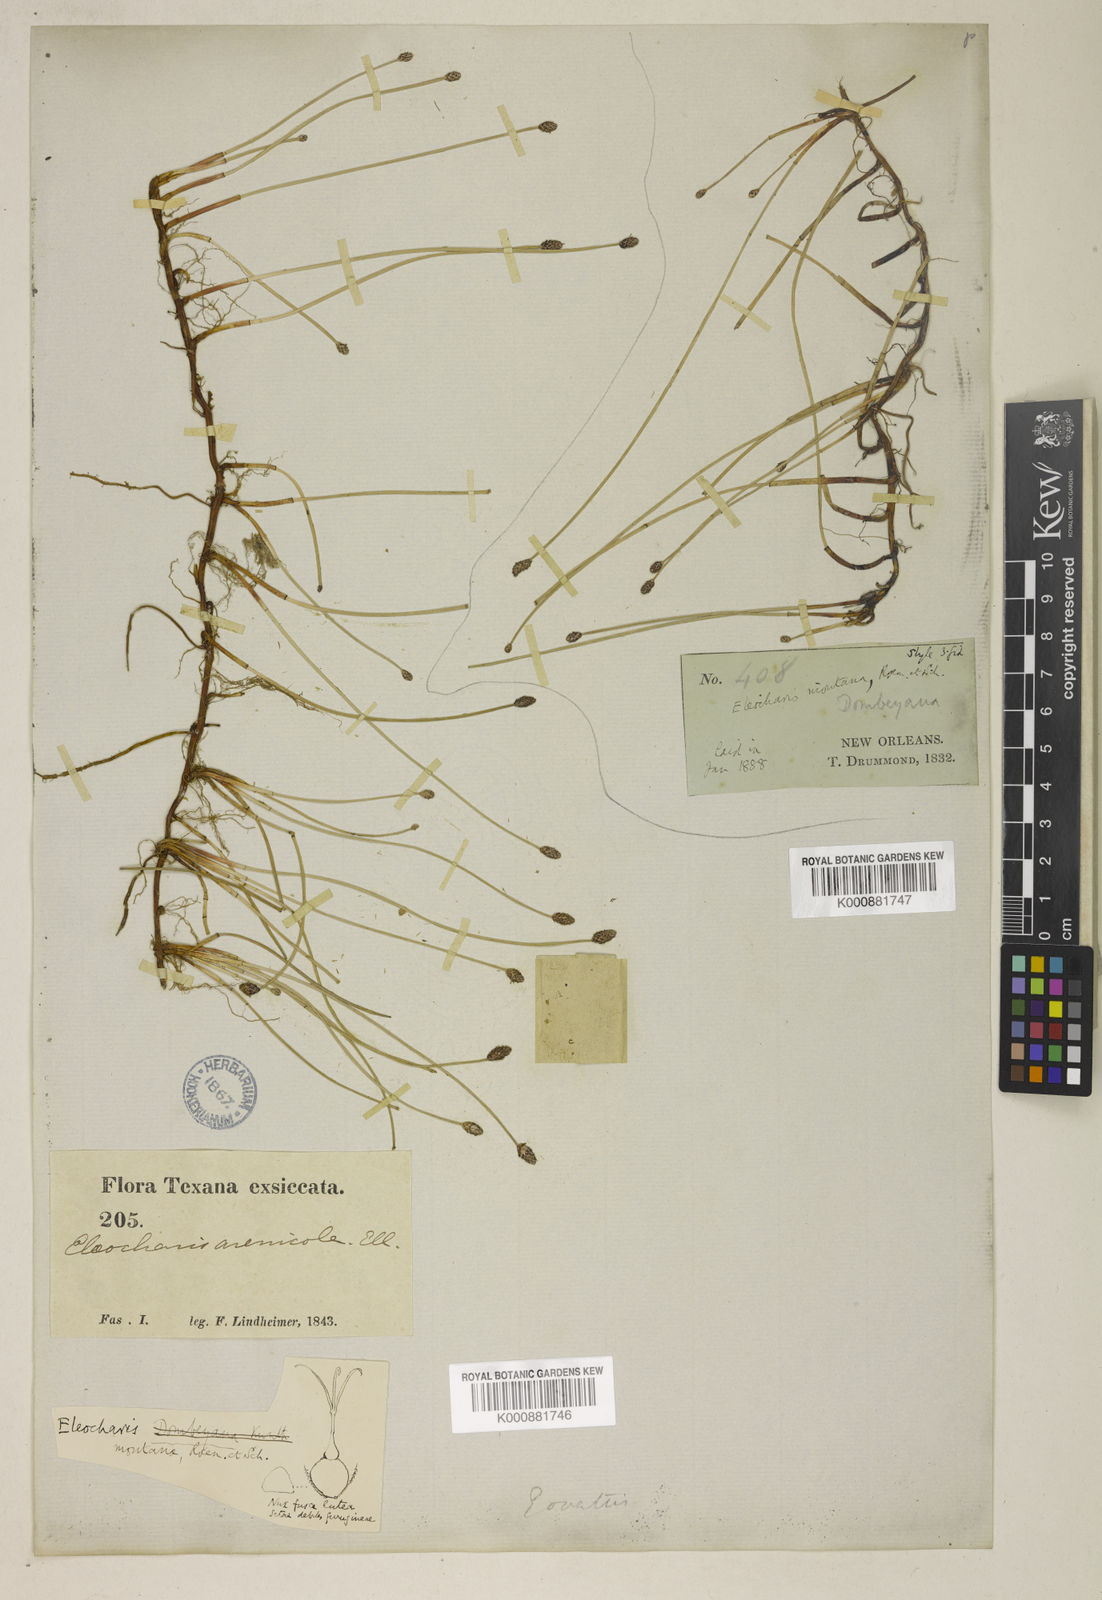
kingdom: Plantae
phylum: Tracheophyta
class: Liliopsida
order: Poales
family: Cyperaceae
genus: Eleocharis
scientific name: Eleocharis montana
